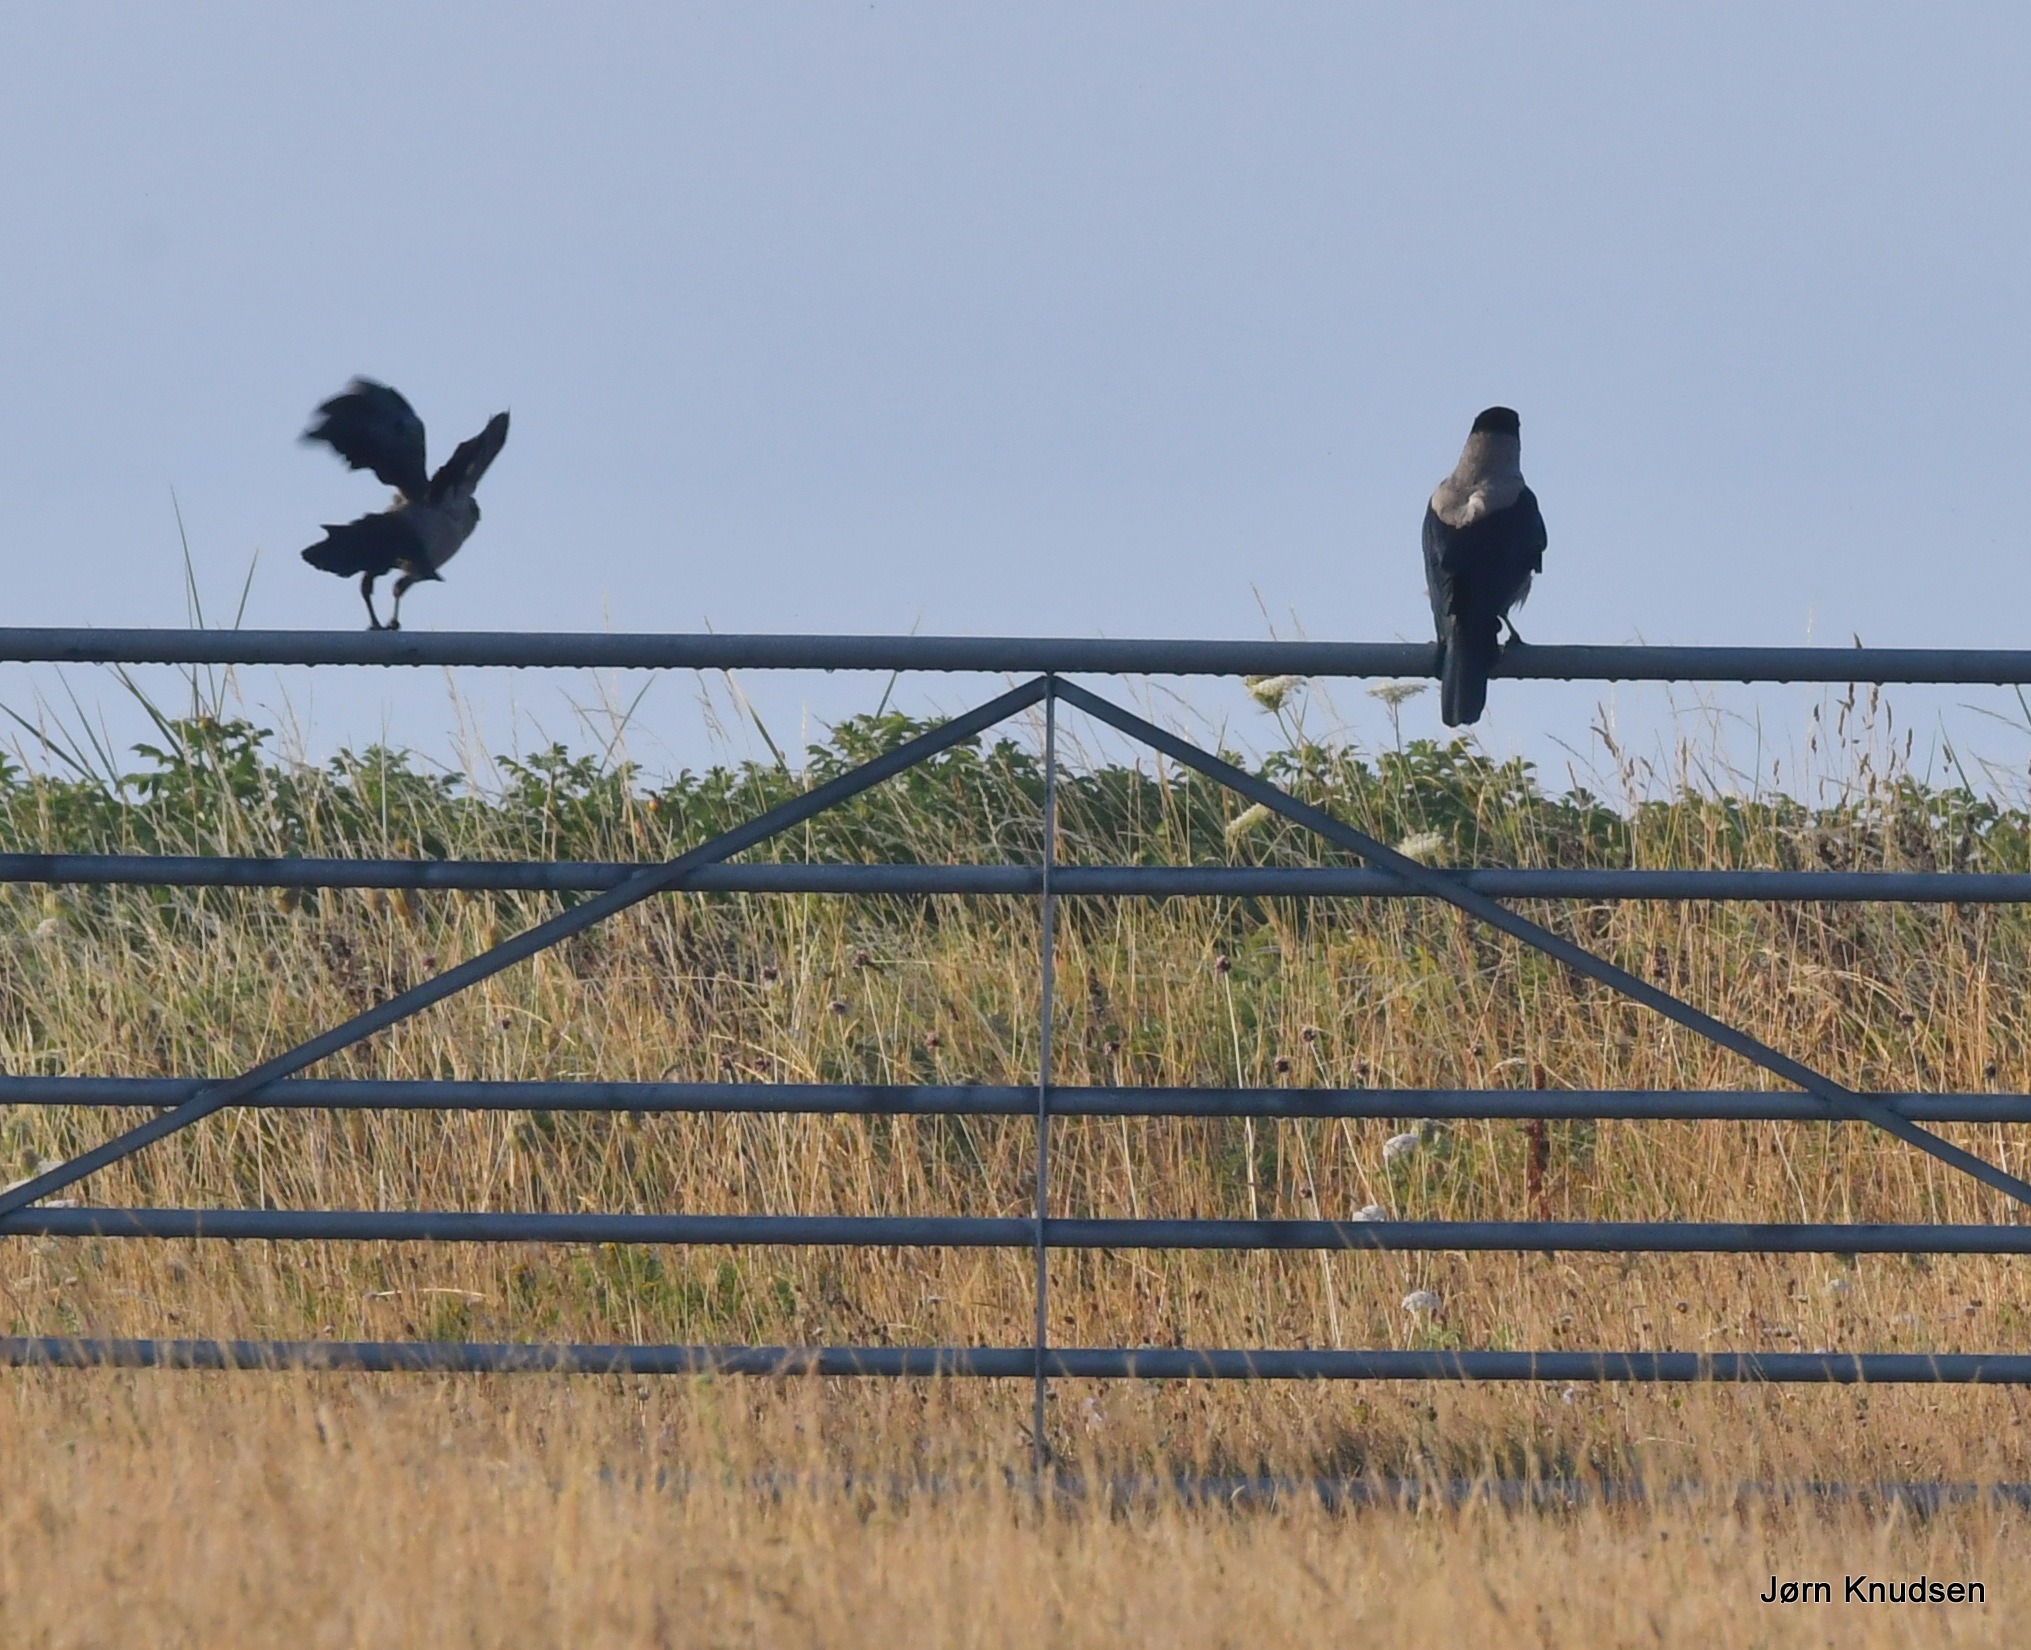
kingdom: Animalia
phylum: Chordata
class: Aves
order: Passeriformes
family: Corvidae
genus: Corvus
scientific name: Corvus cornix
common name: Gråkrage
